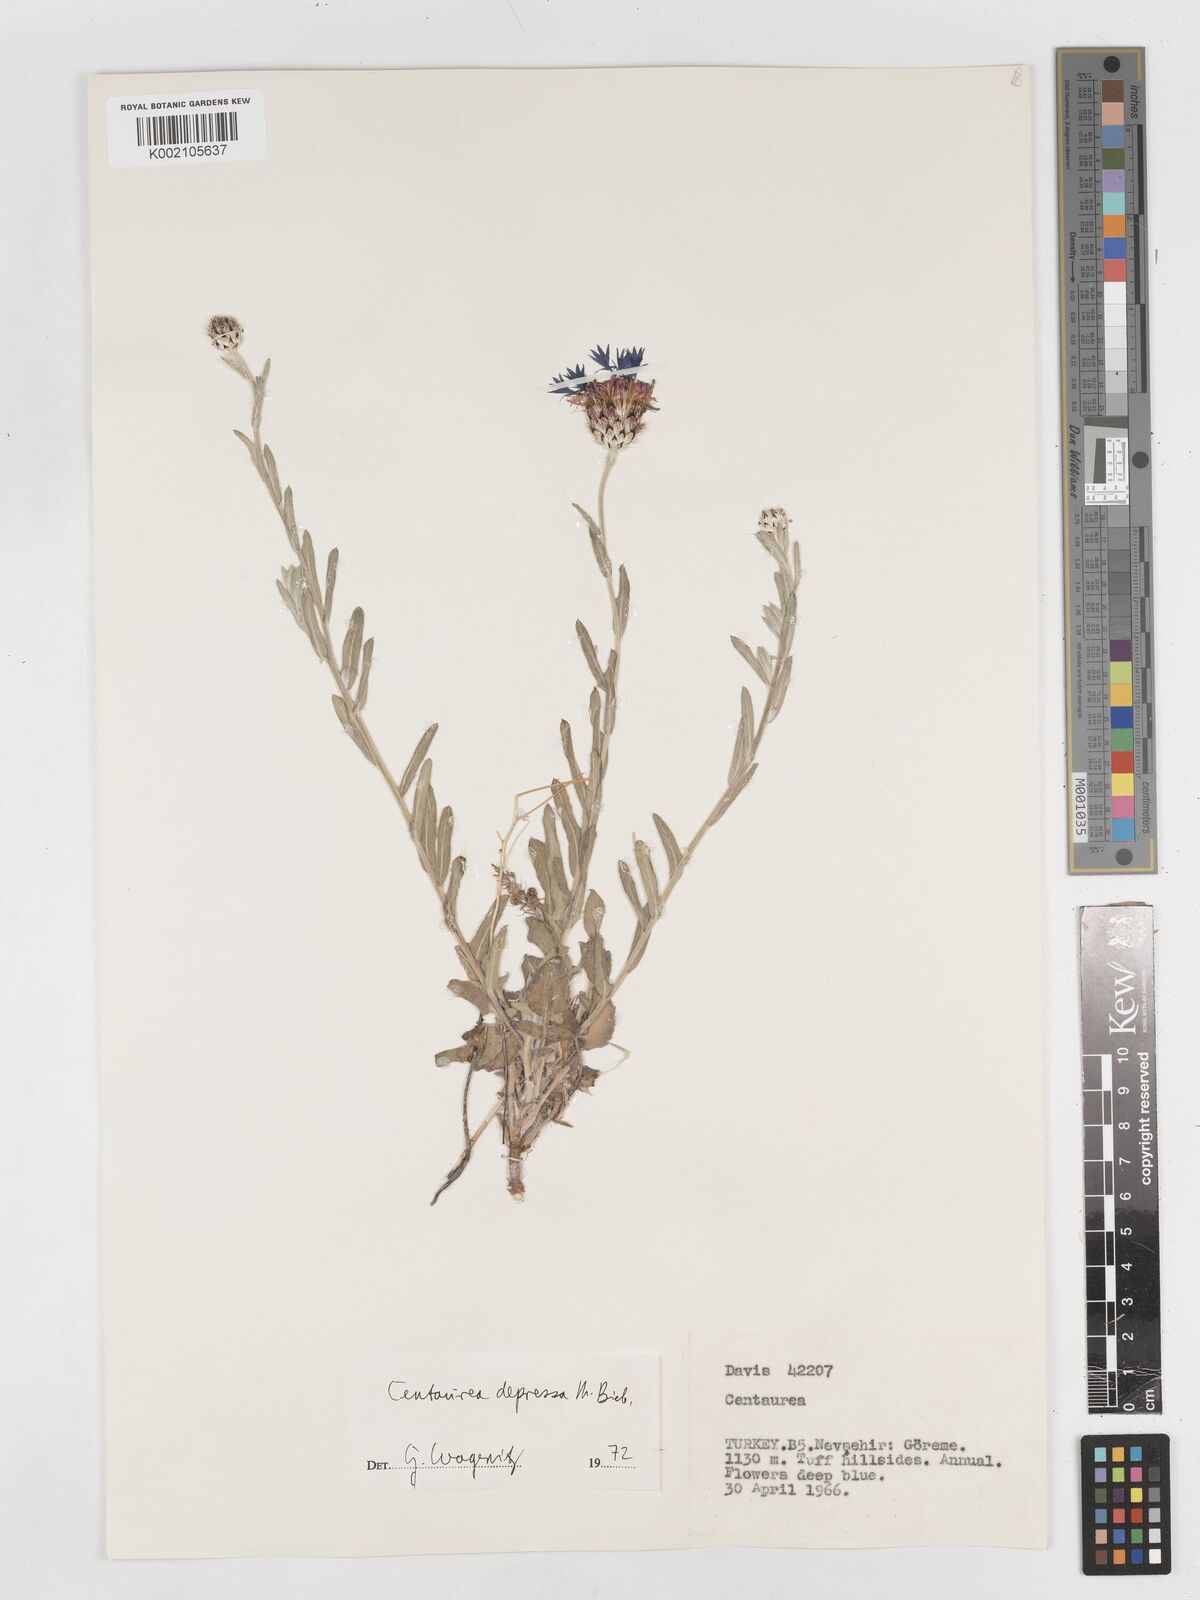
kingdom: Plantae
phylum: Tracheophyta
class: Magnoliopsida
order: Asterales
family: Asteraceae
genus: Centaurea
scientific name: Centaurea depressa
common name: Iranian knapweed
